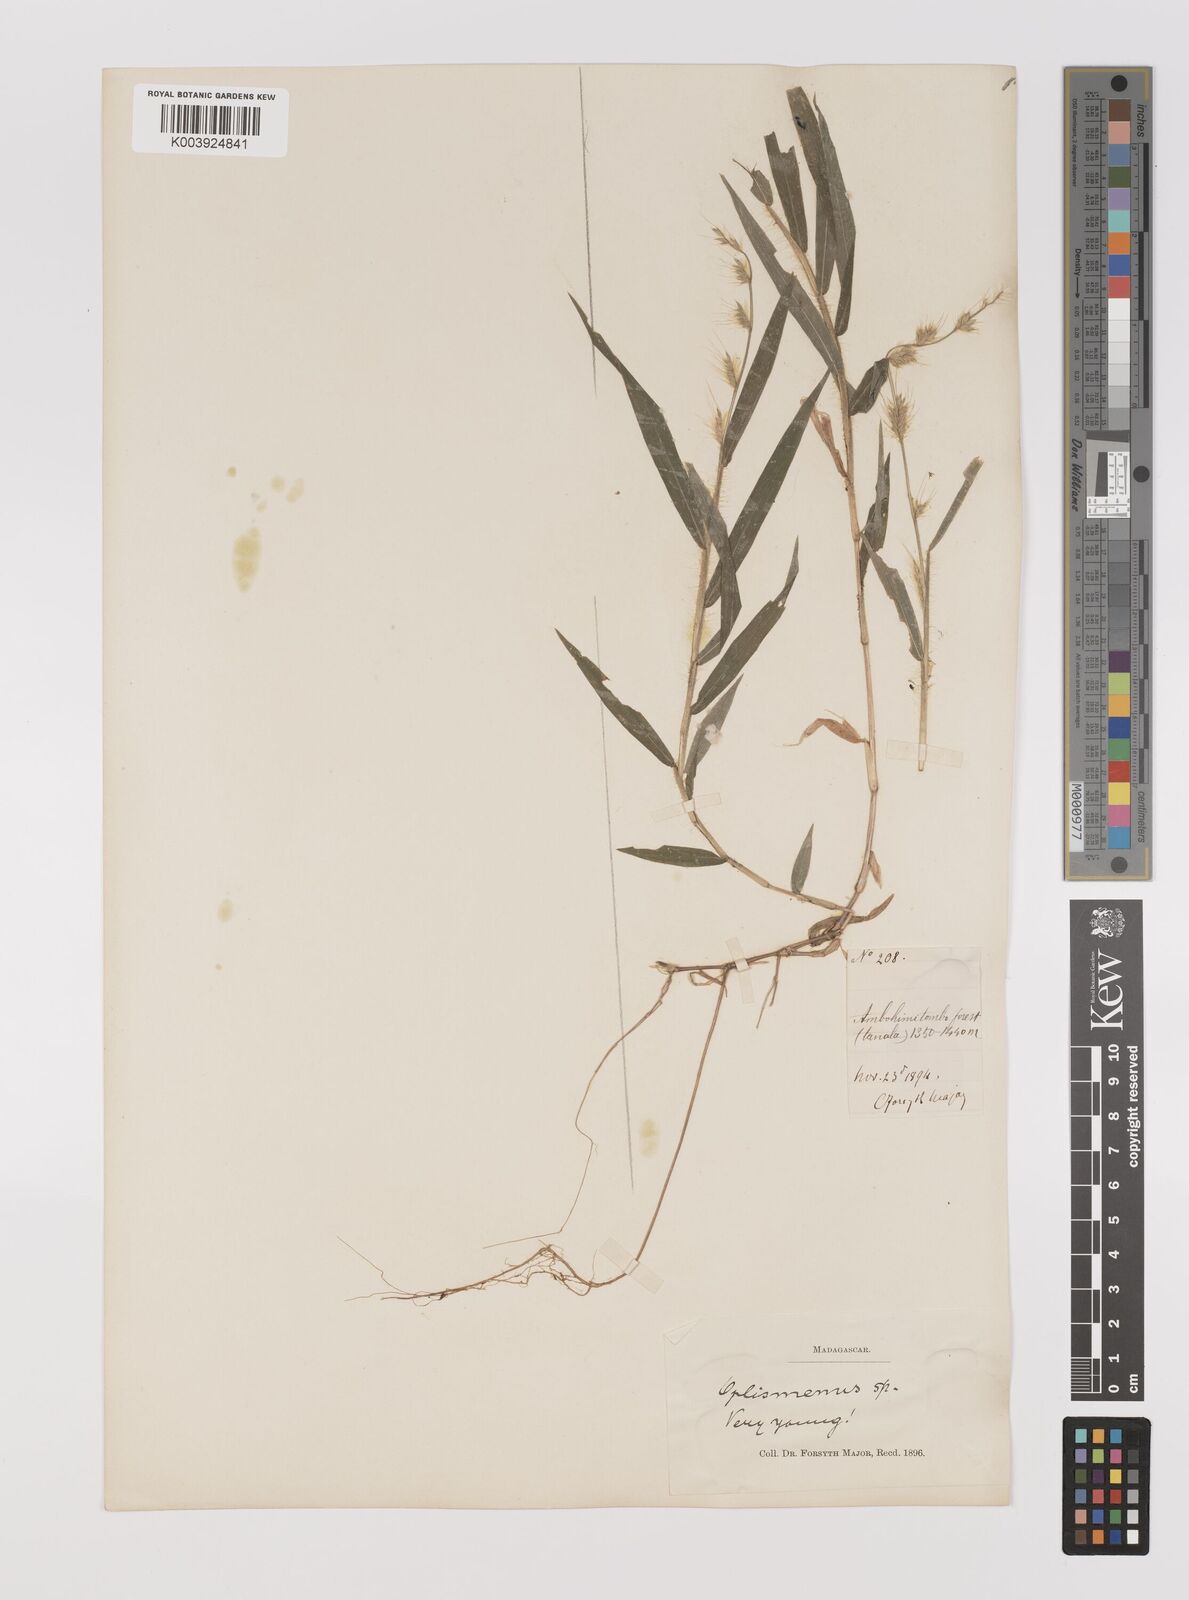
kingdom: Plantae
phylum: Tracheophyta
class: Liliopsida
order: Poales
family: Poaceae
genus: Oplismenus
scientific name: Oplismenus burmanni
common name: Burmann's basketgrass
